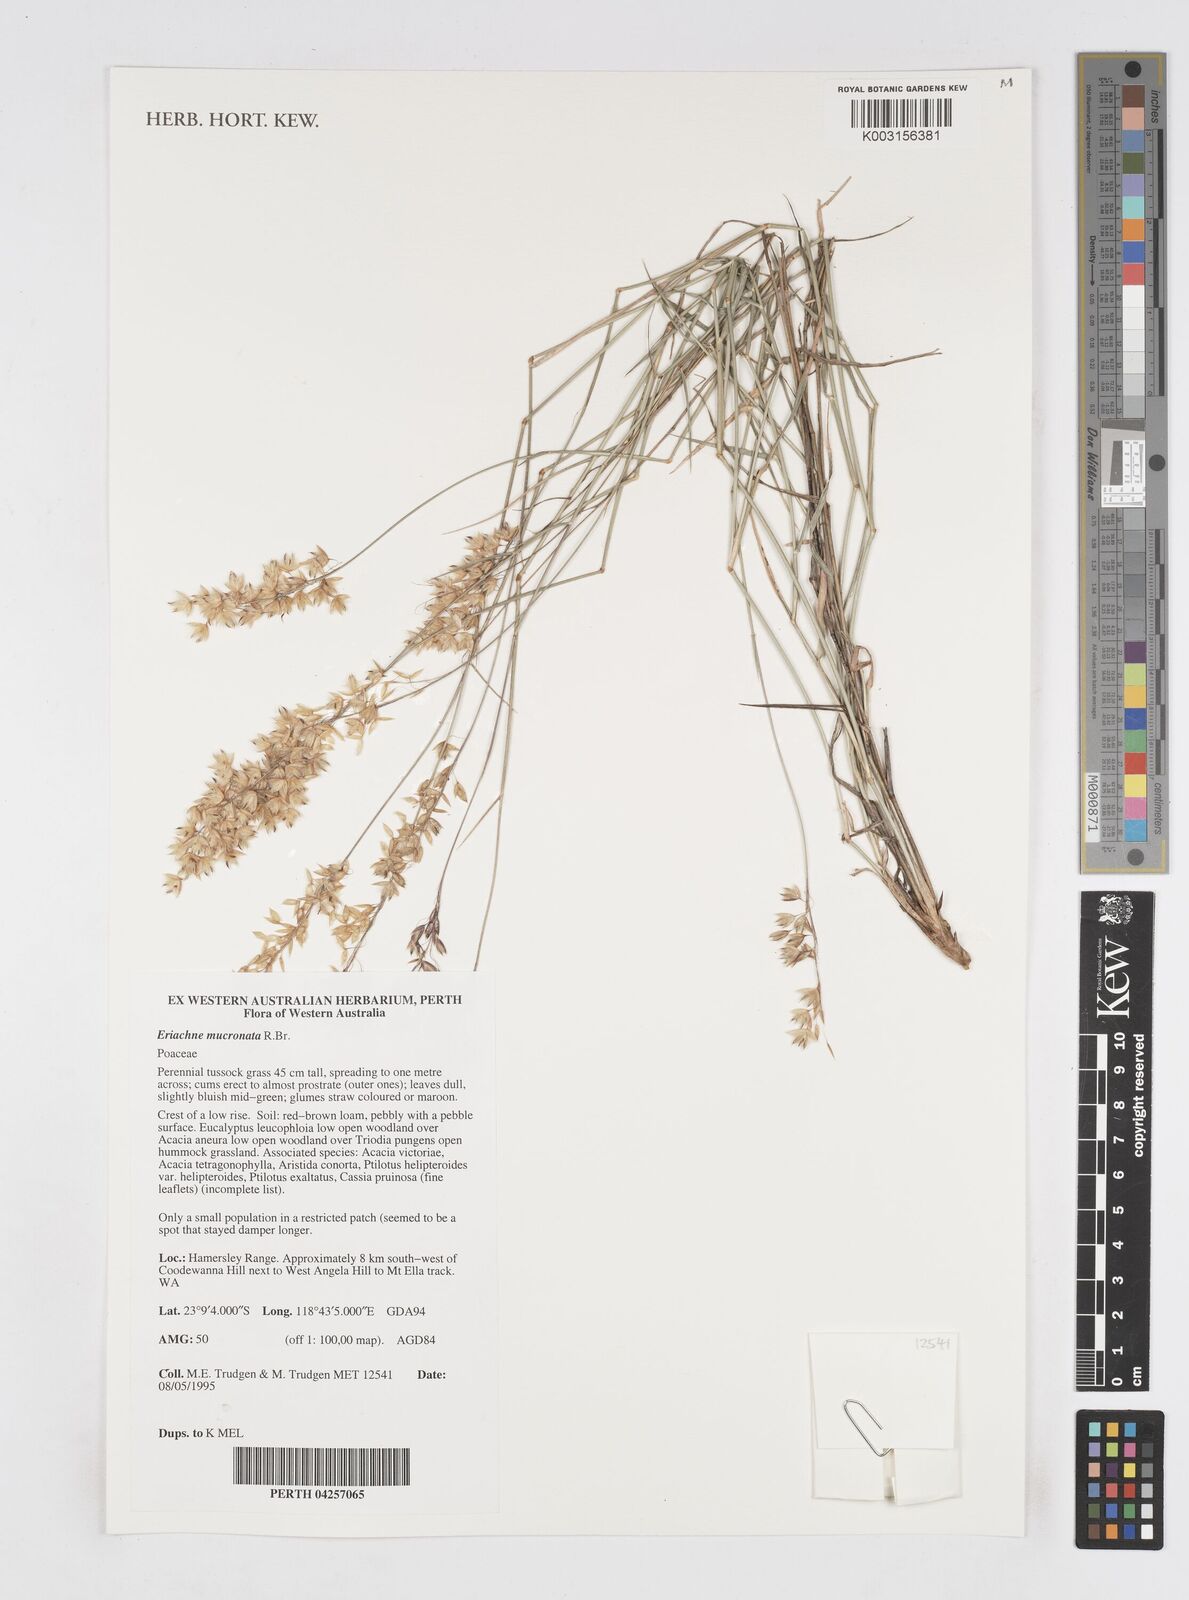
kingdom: Plantae
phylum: Tracheophyta
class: Liliopsida
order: Poales
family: Poaceae
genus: Eriachne
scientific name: Eriachne mucronata
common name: Mountain wanderrie grass
